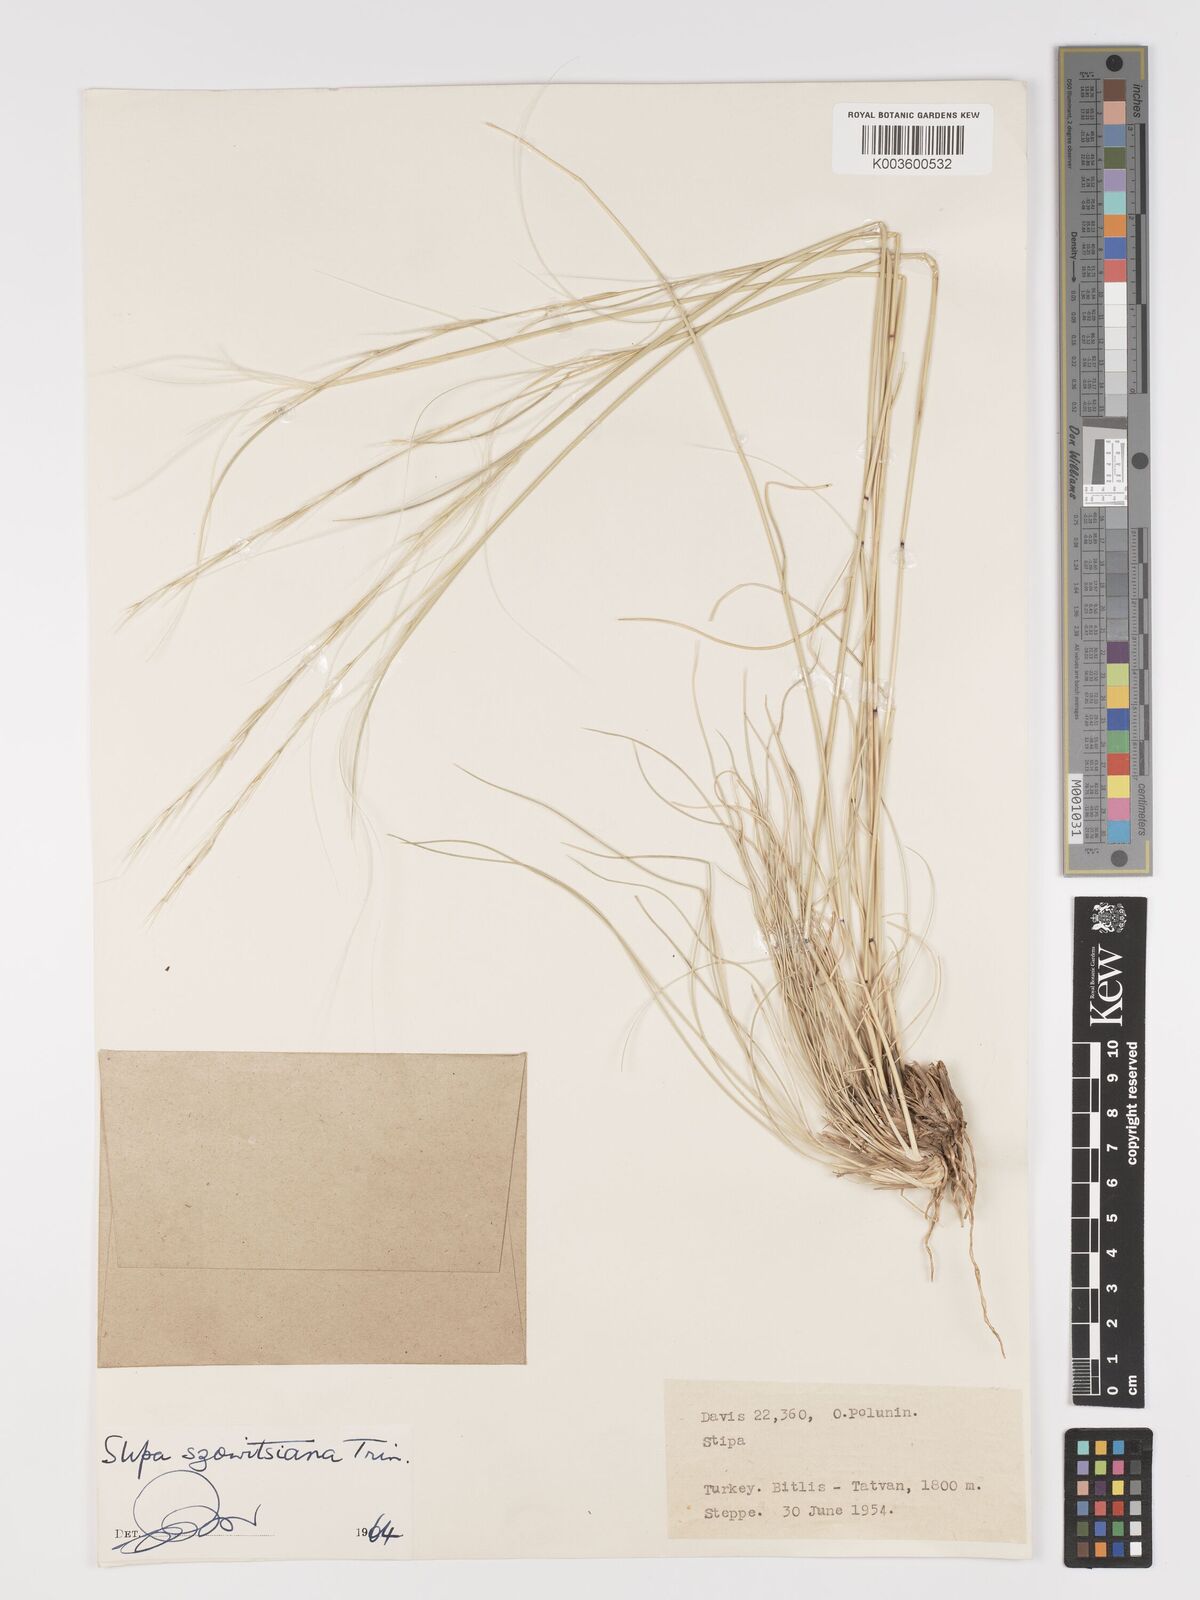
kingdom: Plantae
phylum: Tracheophyta
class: Liliopsida
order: Poales
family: Poaceae
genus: Stipa
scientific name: Stipa barbata
